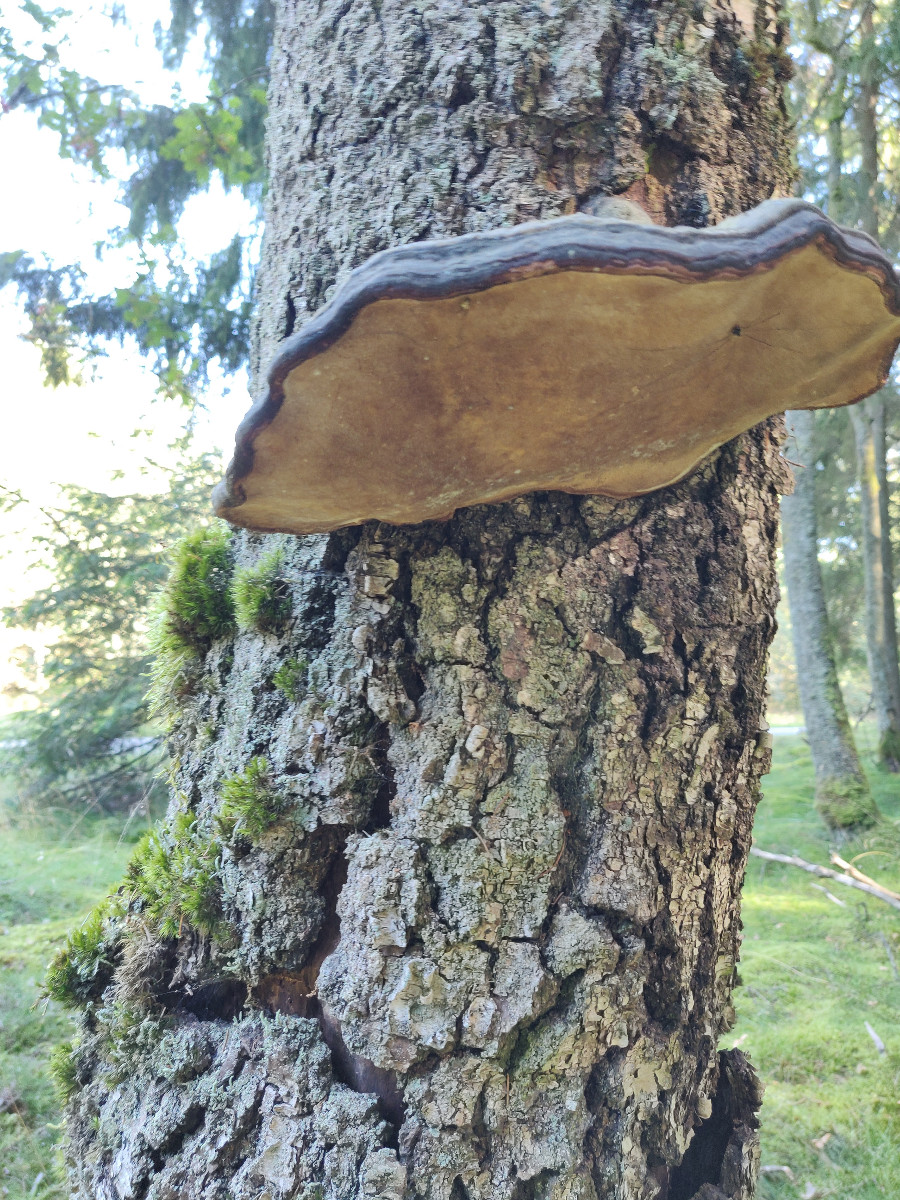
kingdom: Fungi
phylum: Basidiomycota
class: Agaricomycetes
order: Polyporales
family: Fomitopsidaceae
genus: Fomitopsis
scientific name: Fomitopsis pinicola
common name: randbæltet hovporesvamp
